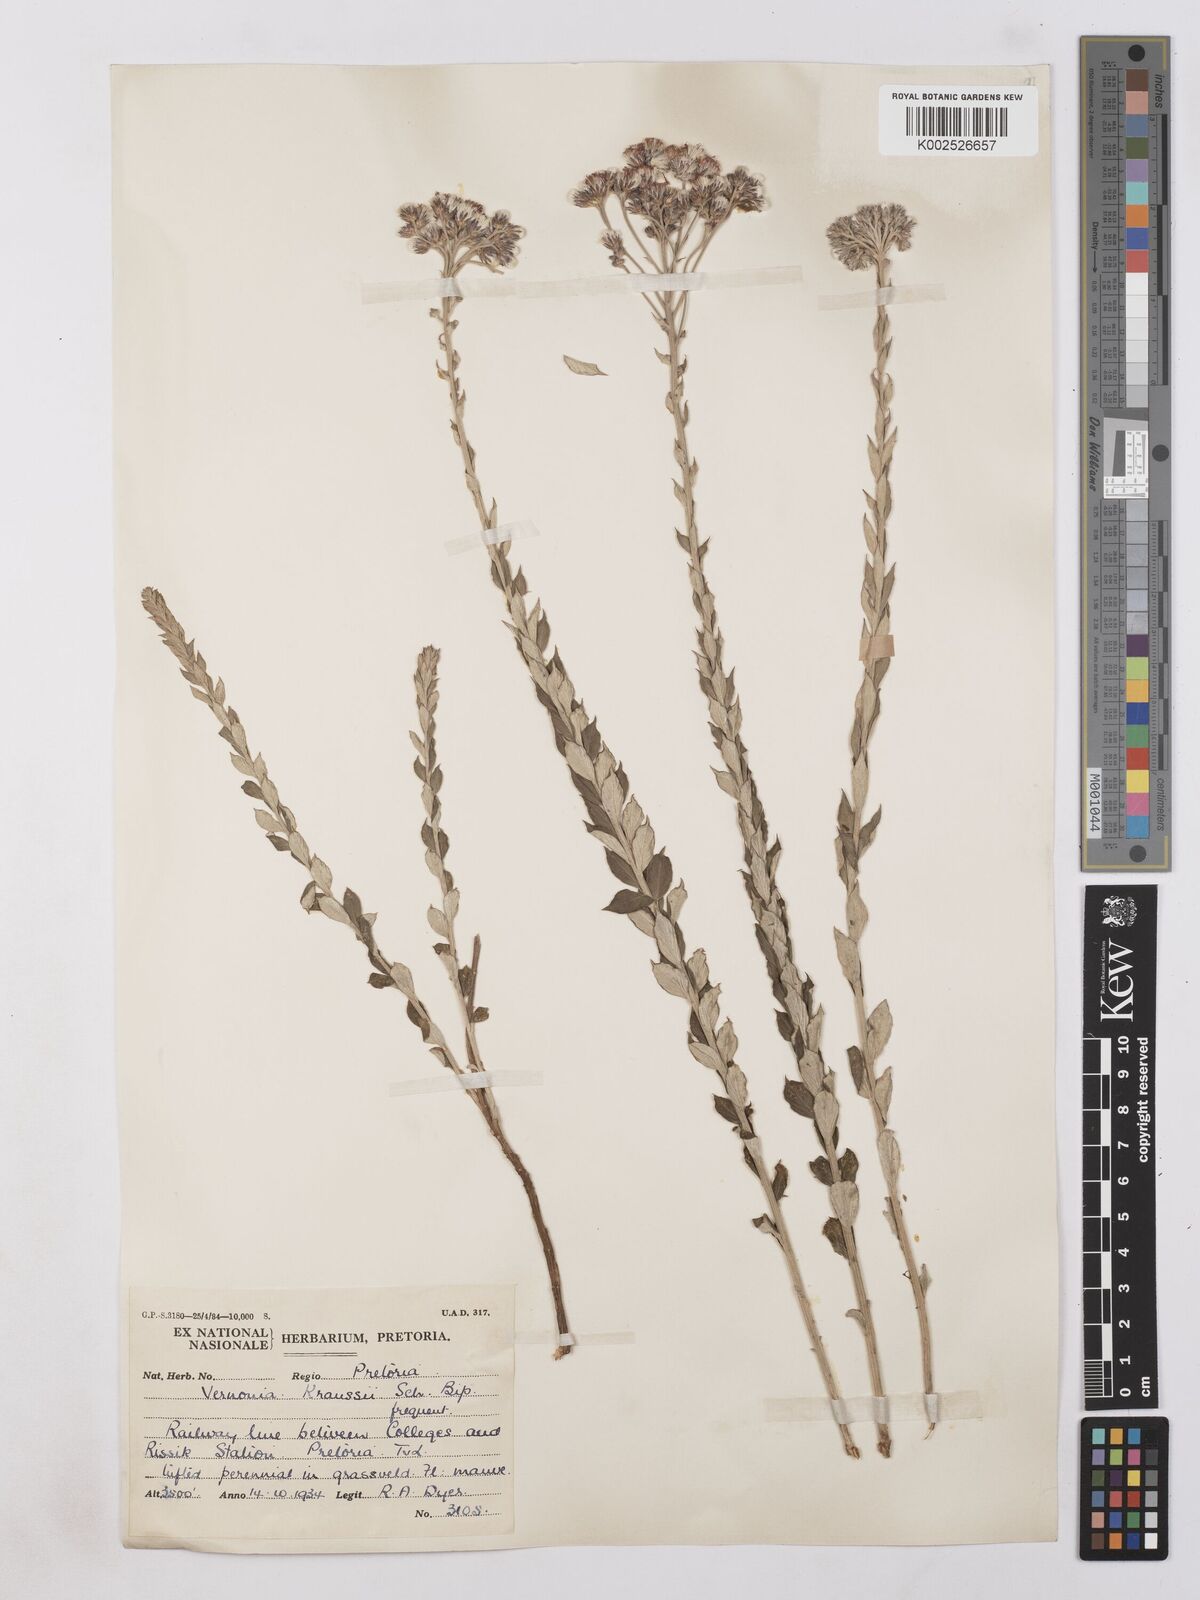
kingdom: Plantae
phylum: Tracheophyta
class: Magnoliopsida
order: Asterales
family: Asteraceae
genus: Hilliardiella
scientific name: Hilliardiella oligocephala
